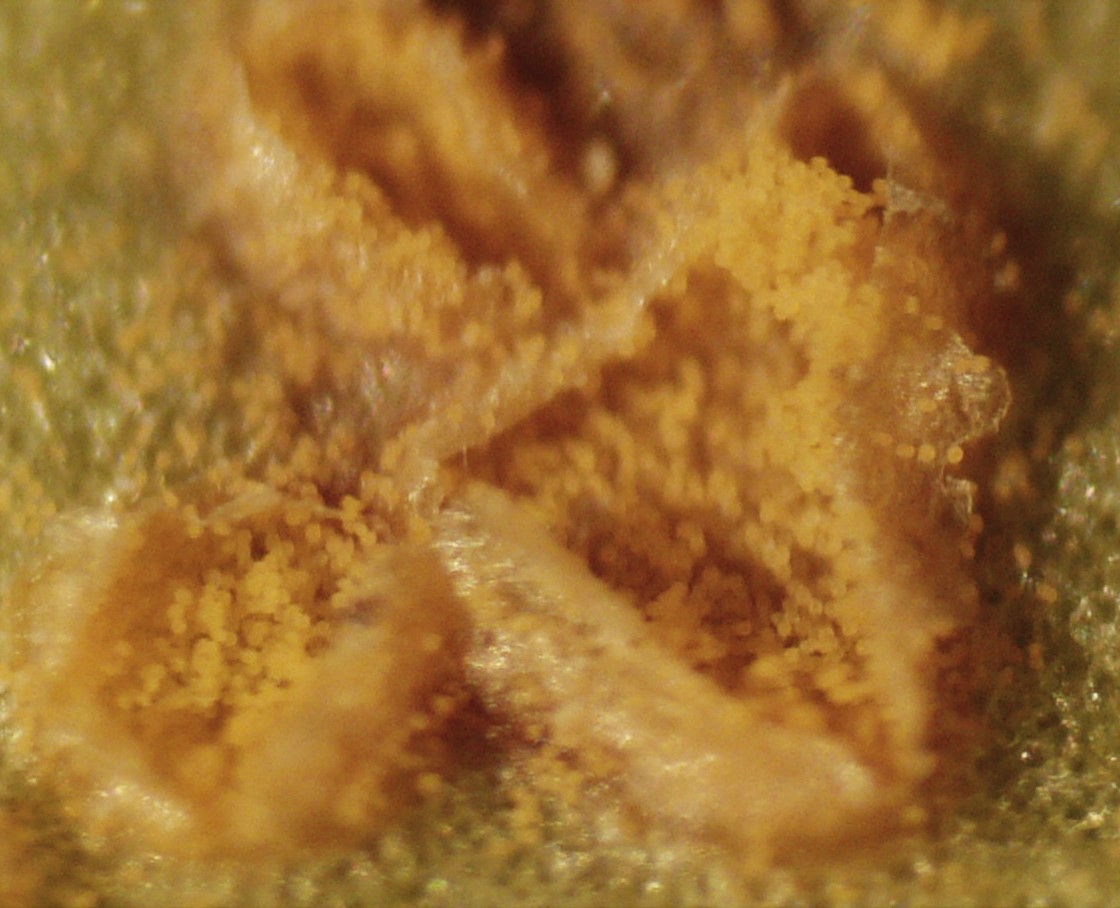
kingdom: Fungi
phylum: Basidiomycota
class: Pucciniomycetes
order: Pucciniales
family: Coleosporiaceae
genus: Coleosporium
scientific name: Coleosporium campanulae
